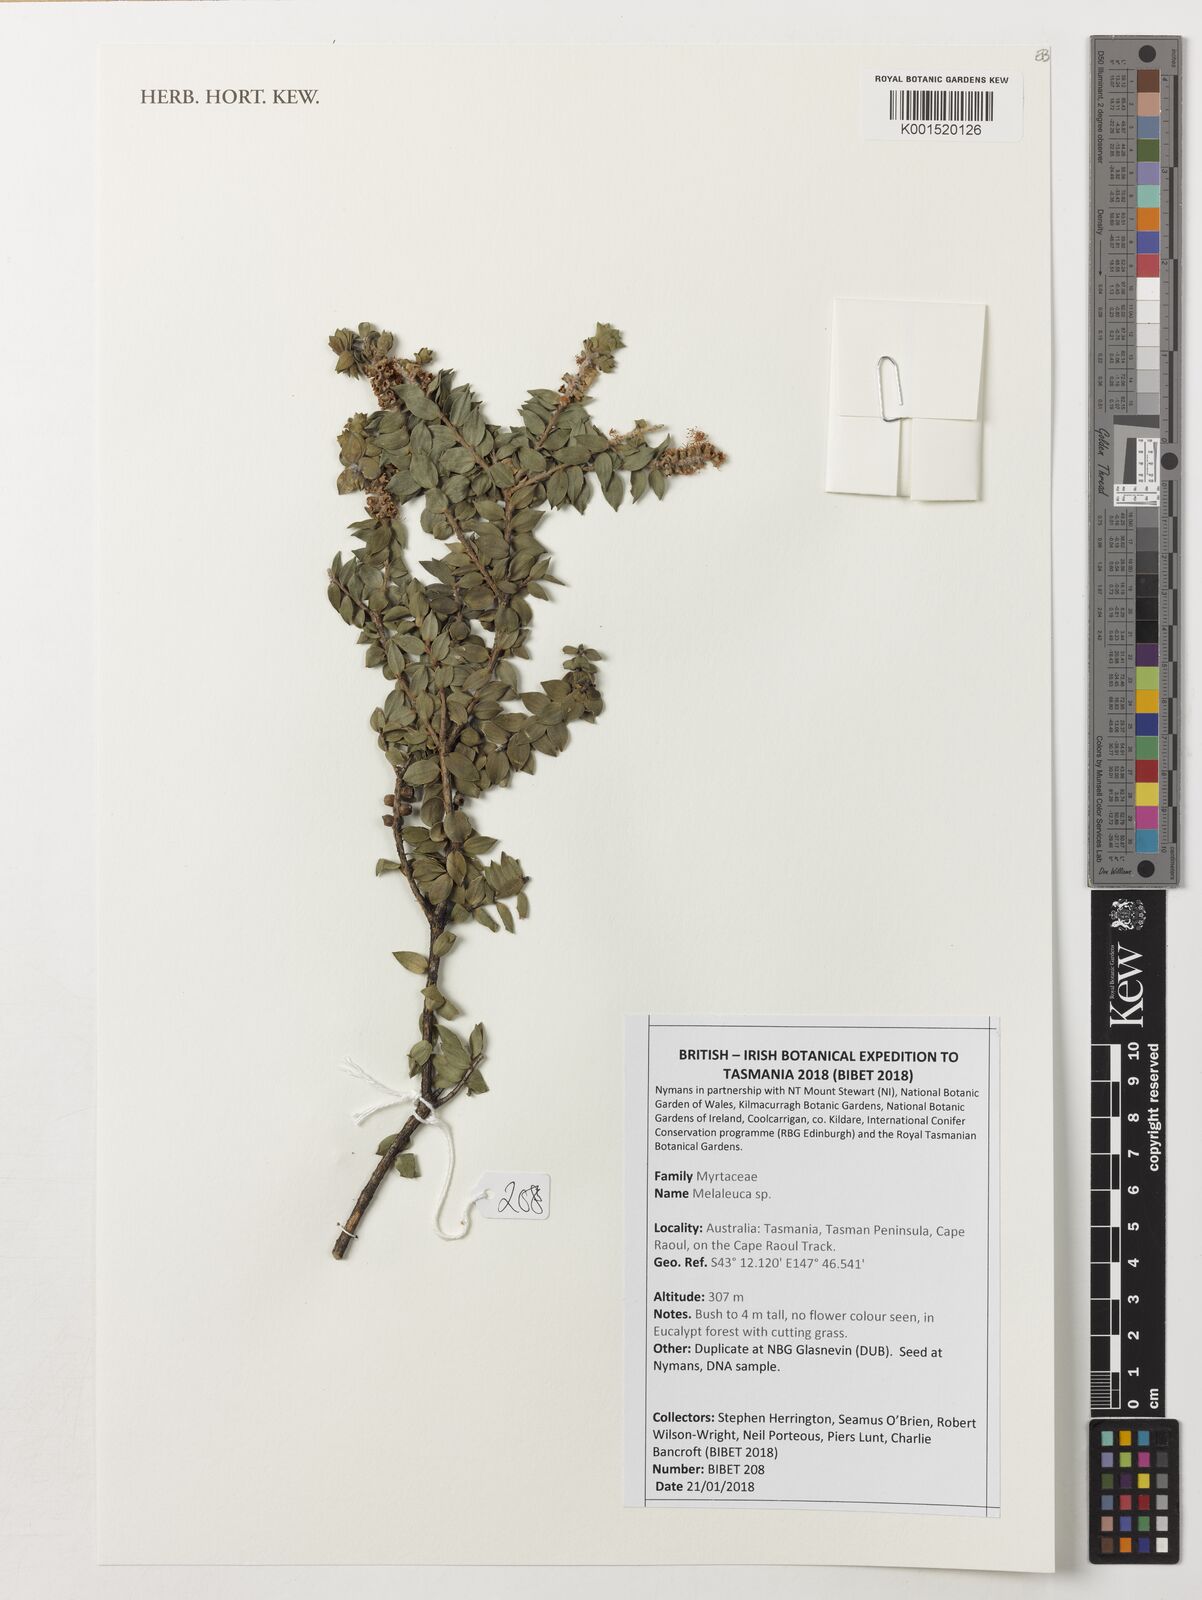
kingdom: Plantae
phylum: Tracheophyta
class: Magnoliopsida
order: Myrtales
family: Myrtaceae
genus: Melaleuca
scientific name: Melaleuca
